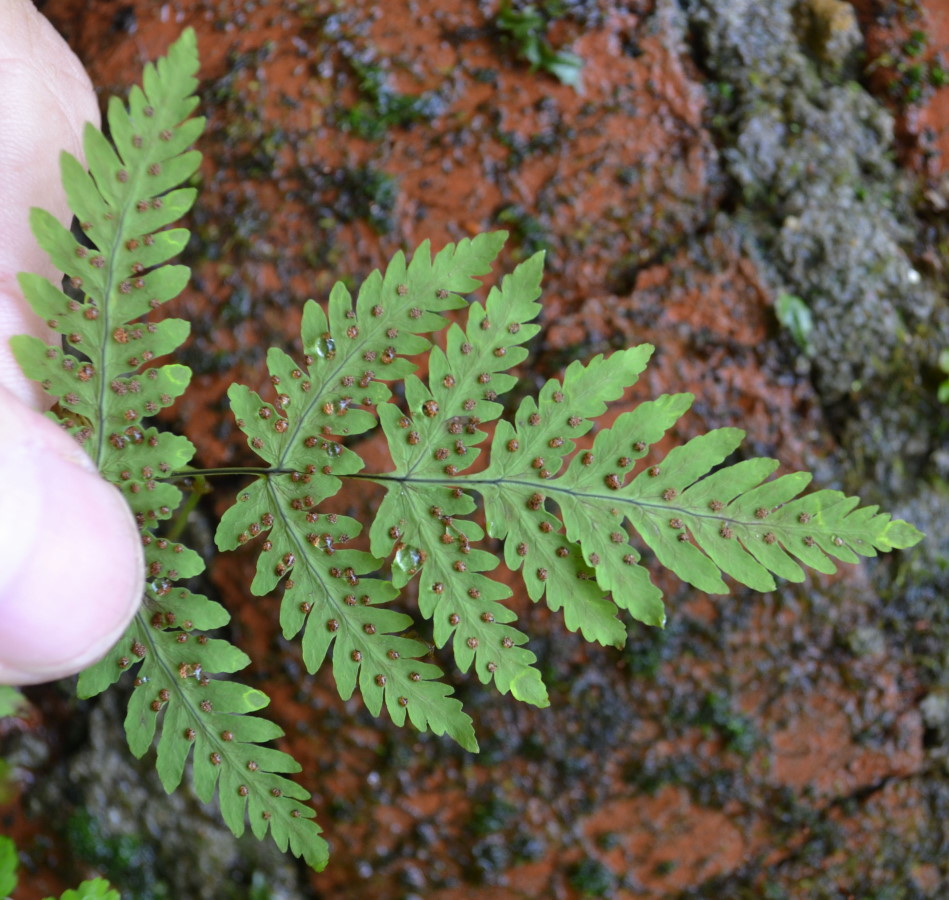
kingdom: Plantae
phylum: Tracheophyta
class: Polypodiopsida
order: Polypodiales
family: Cystopteridaceae
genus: Gymnocarpium
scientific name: Gymnocarpium dryopteris
